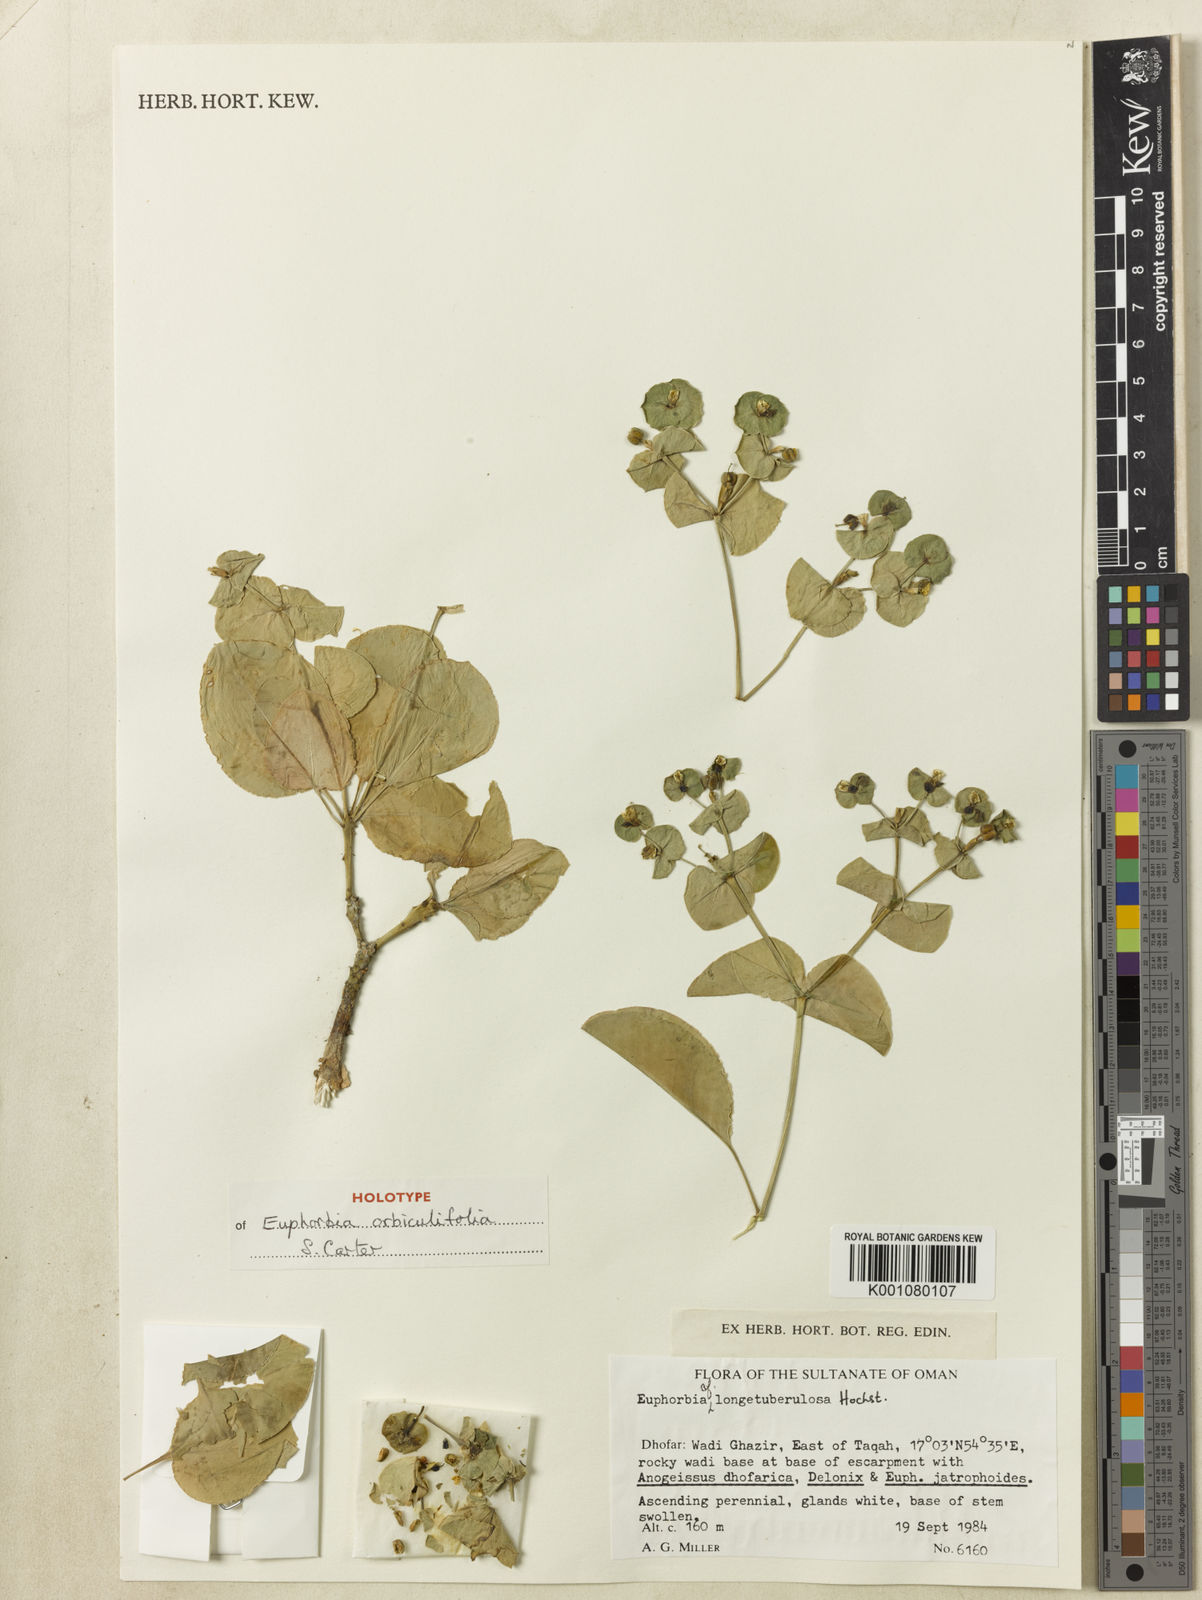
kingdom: Plantae
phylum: Tracheophyta
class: Magnoliopsida
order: Malpighiales
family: Euphorbiaceae
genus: Euphorbia
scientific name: Euphorbia orbiculifolia
